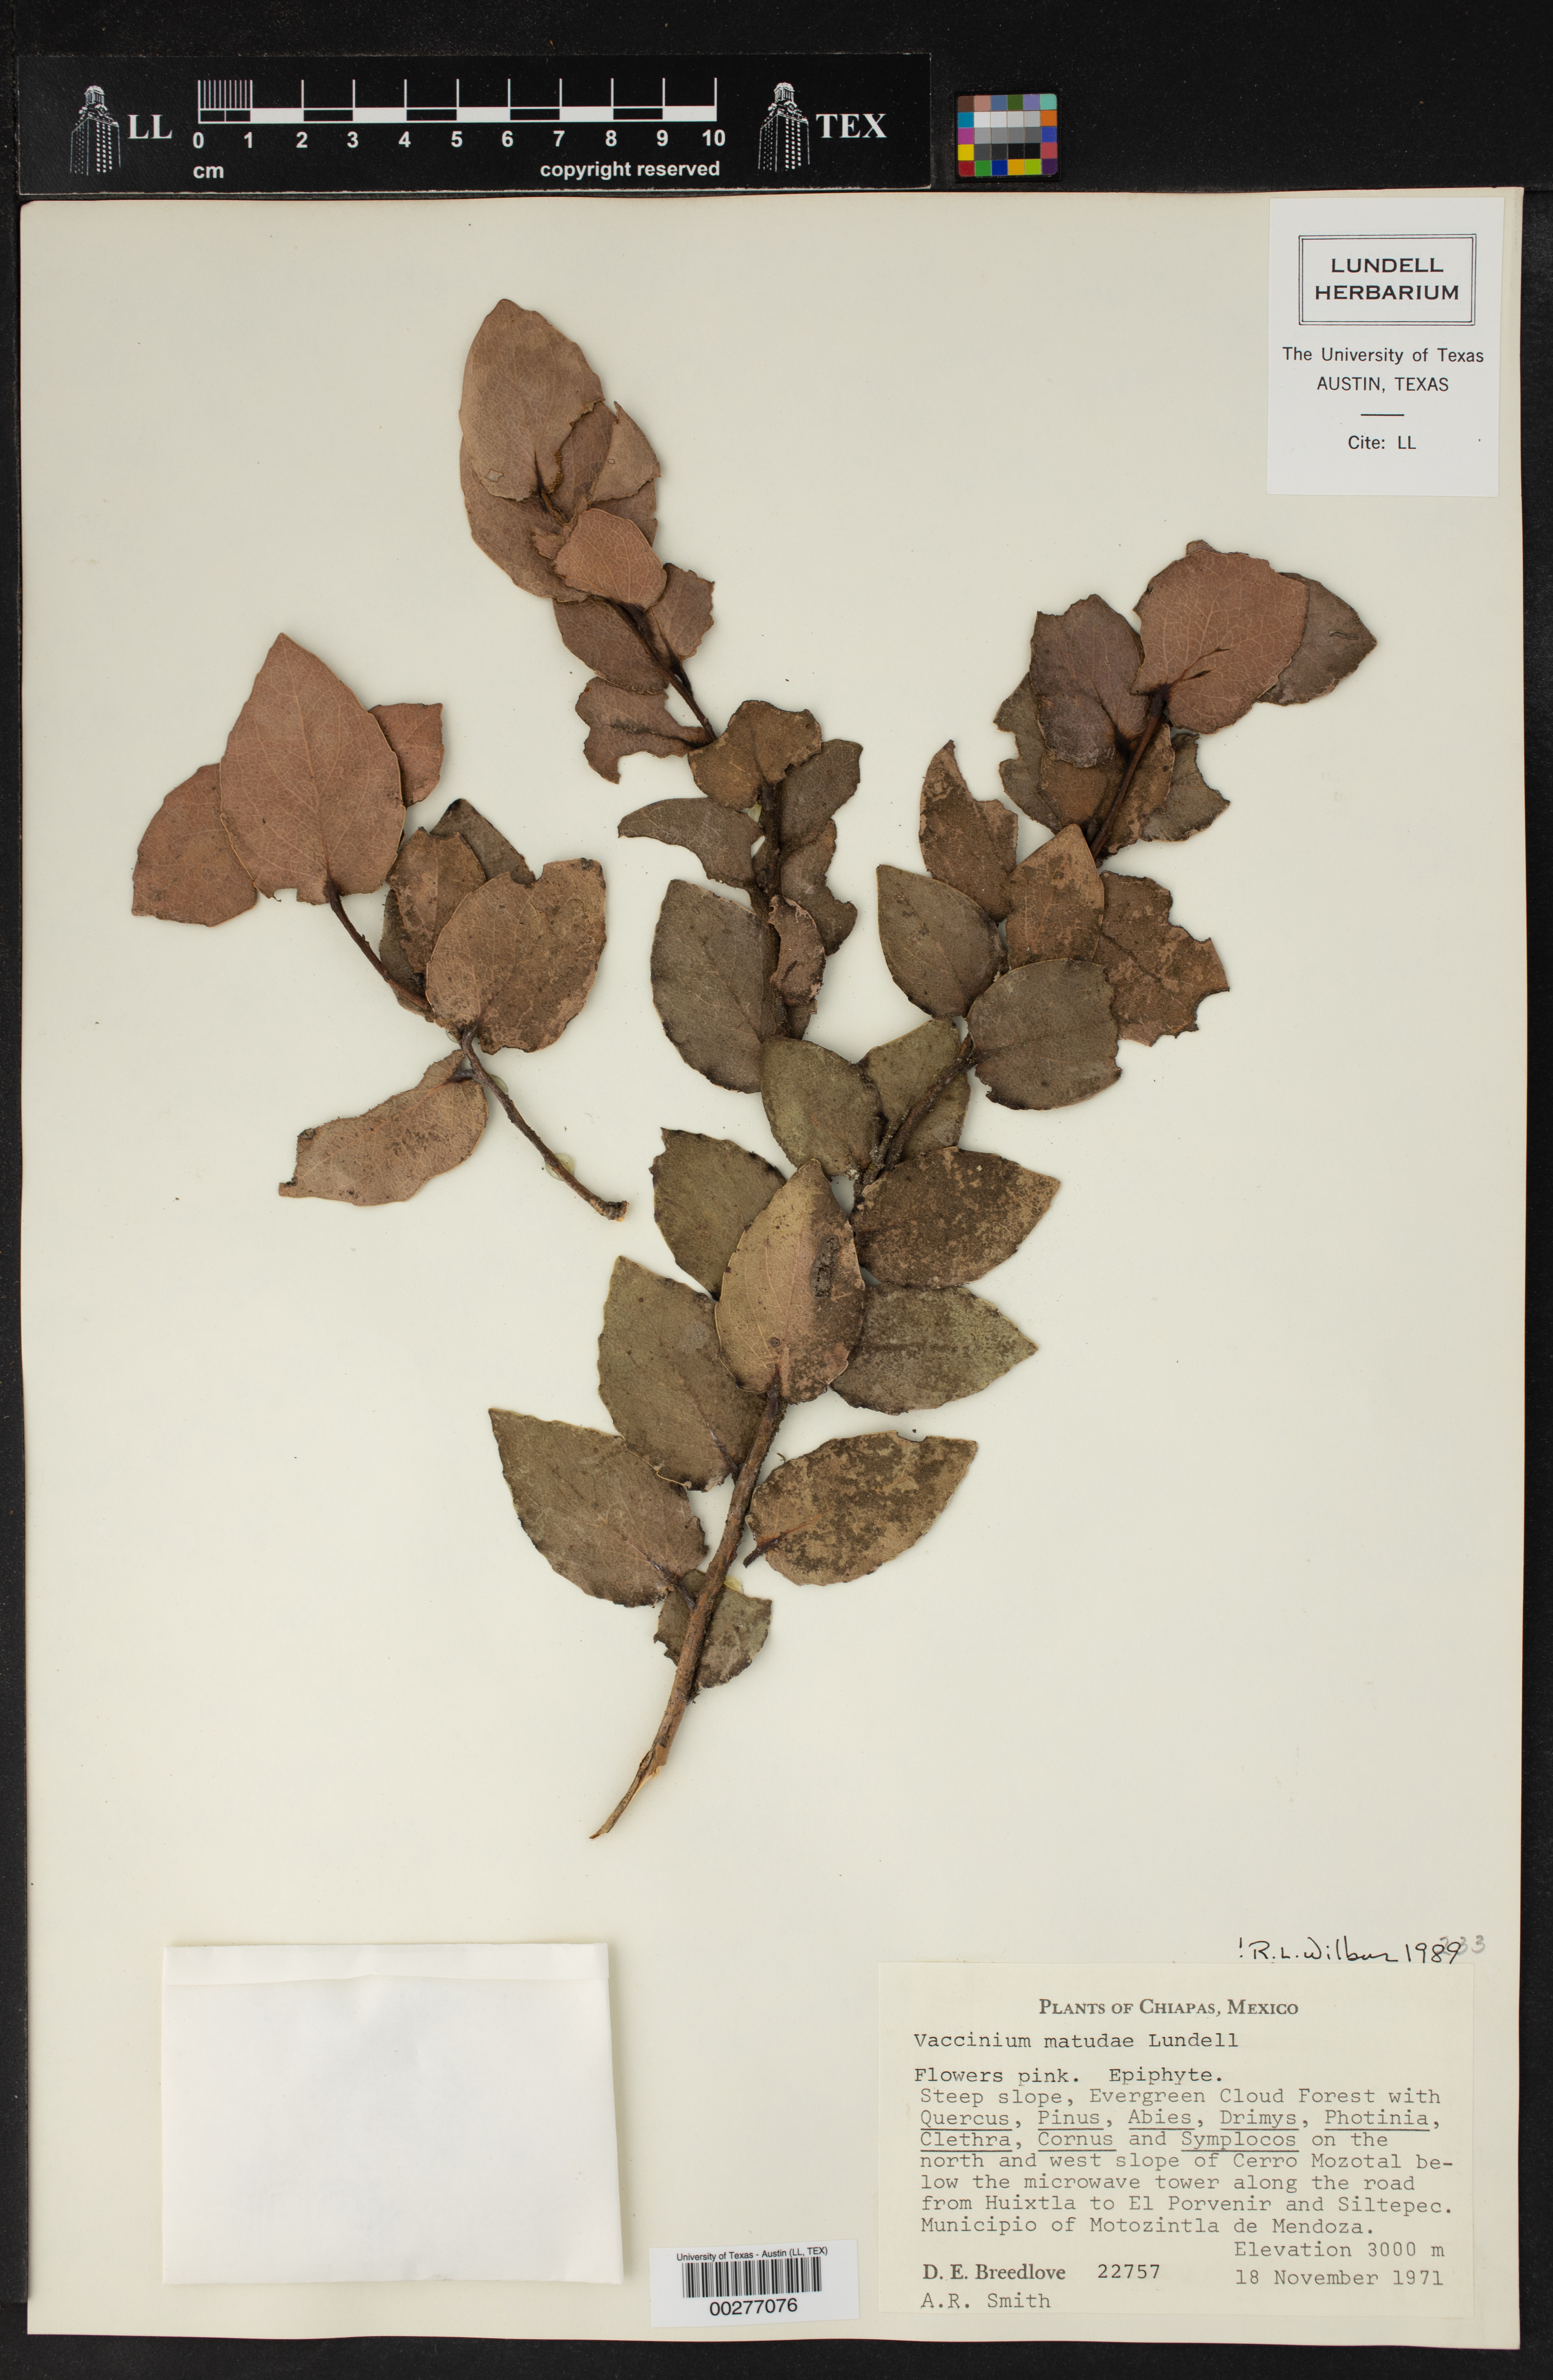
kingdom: Plantae
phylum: Tracheophyta
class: Magnoliopsida
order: Ericales
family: Ericaceae
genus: Vaccinium
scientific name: Vaccinium cordifolium
